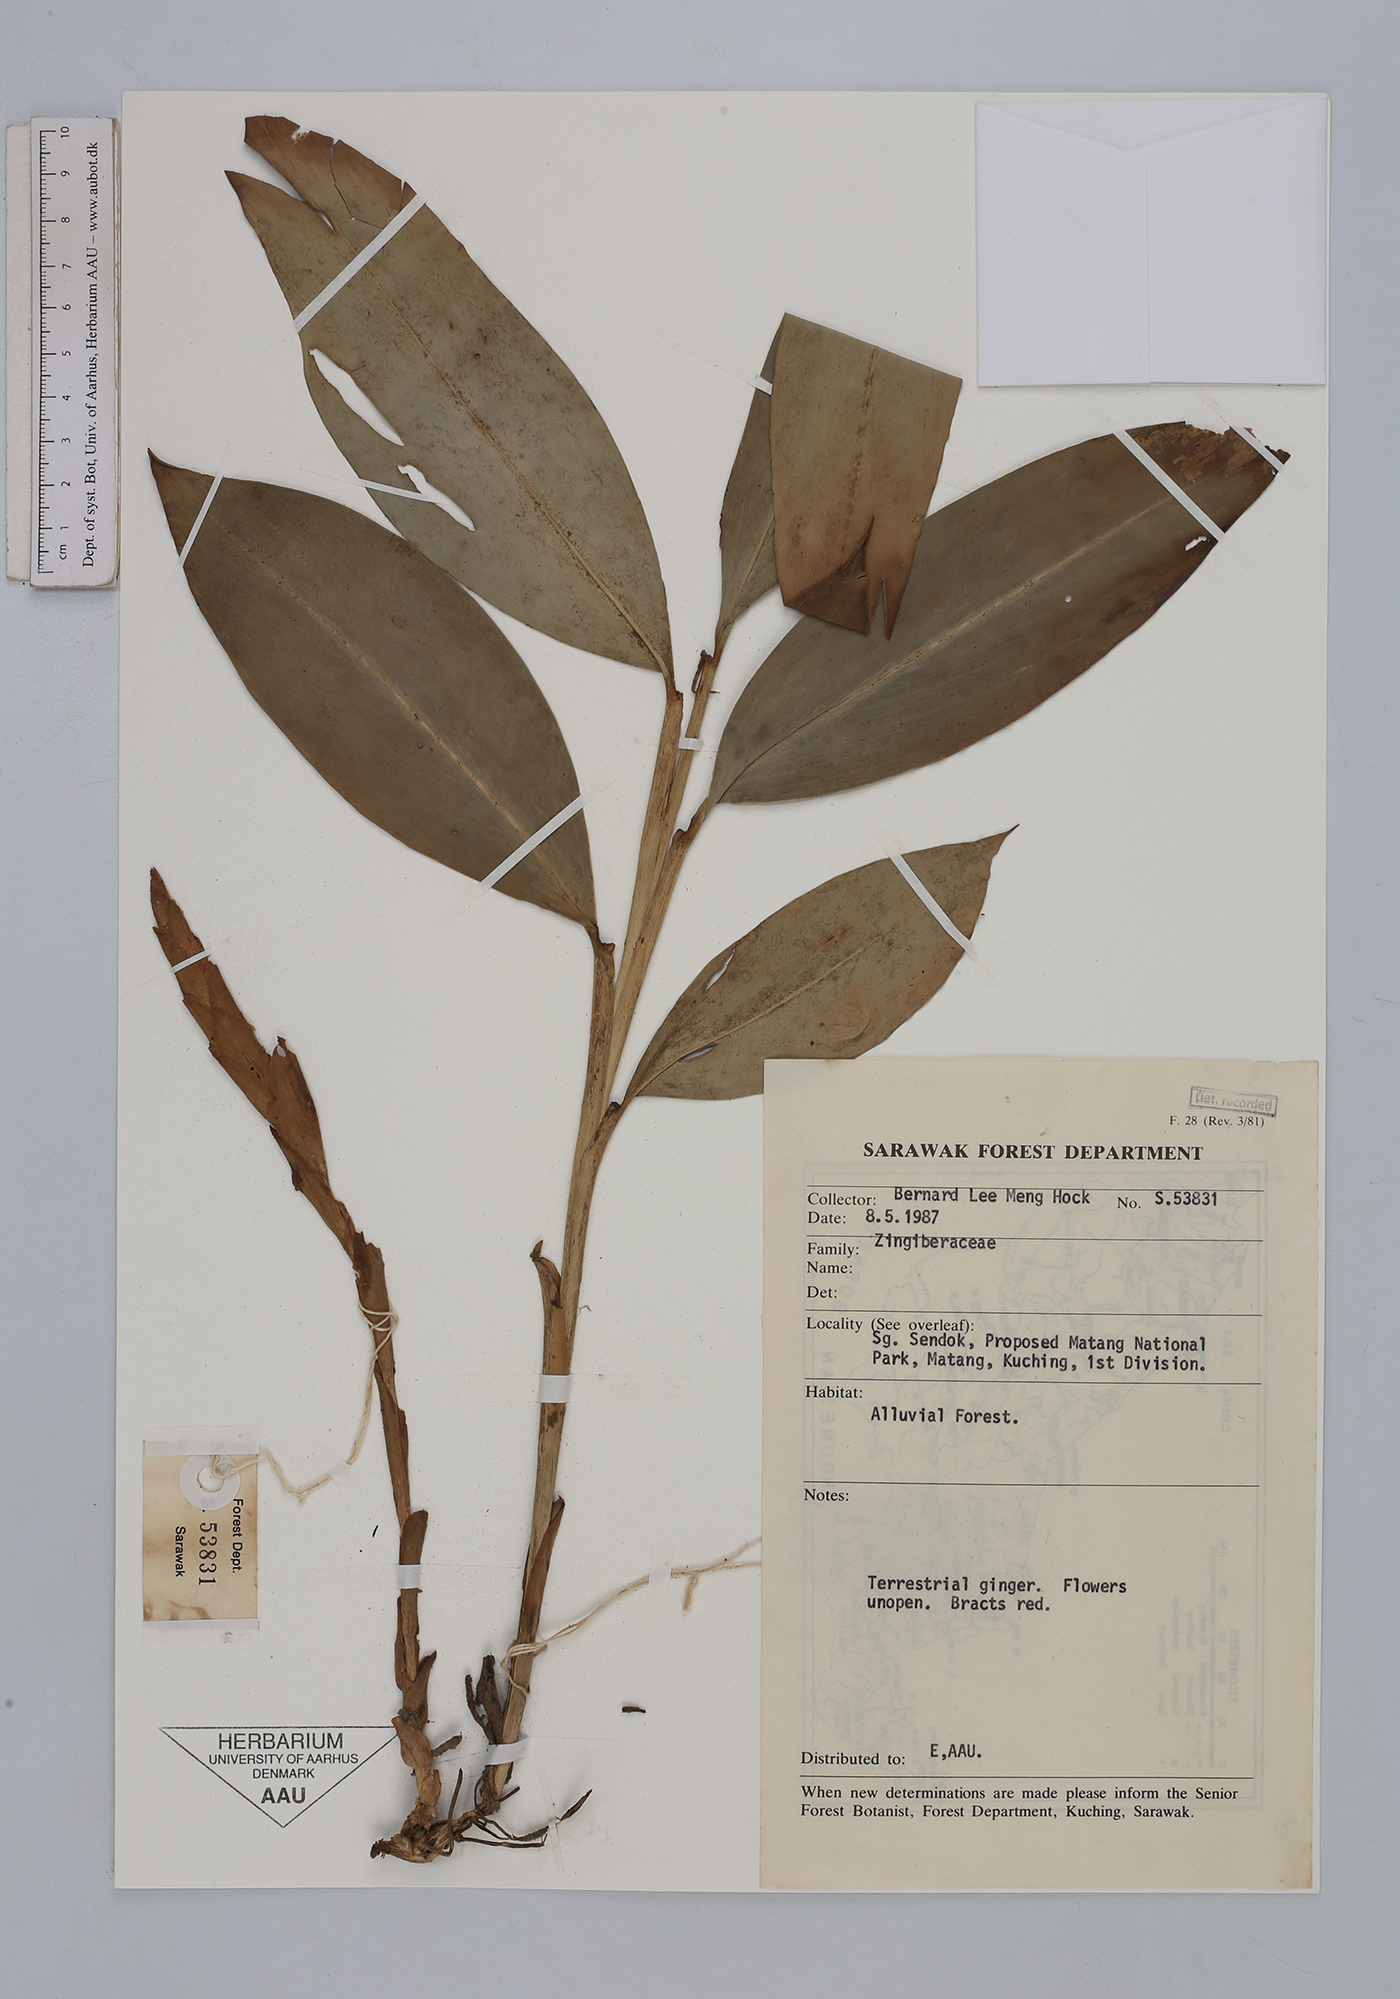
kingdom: Plantae
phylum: Tracheophyta
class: Liliopsida
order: Zingiberales
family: Zingiberaceae
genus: Zingiber
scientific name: Zingiber
